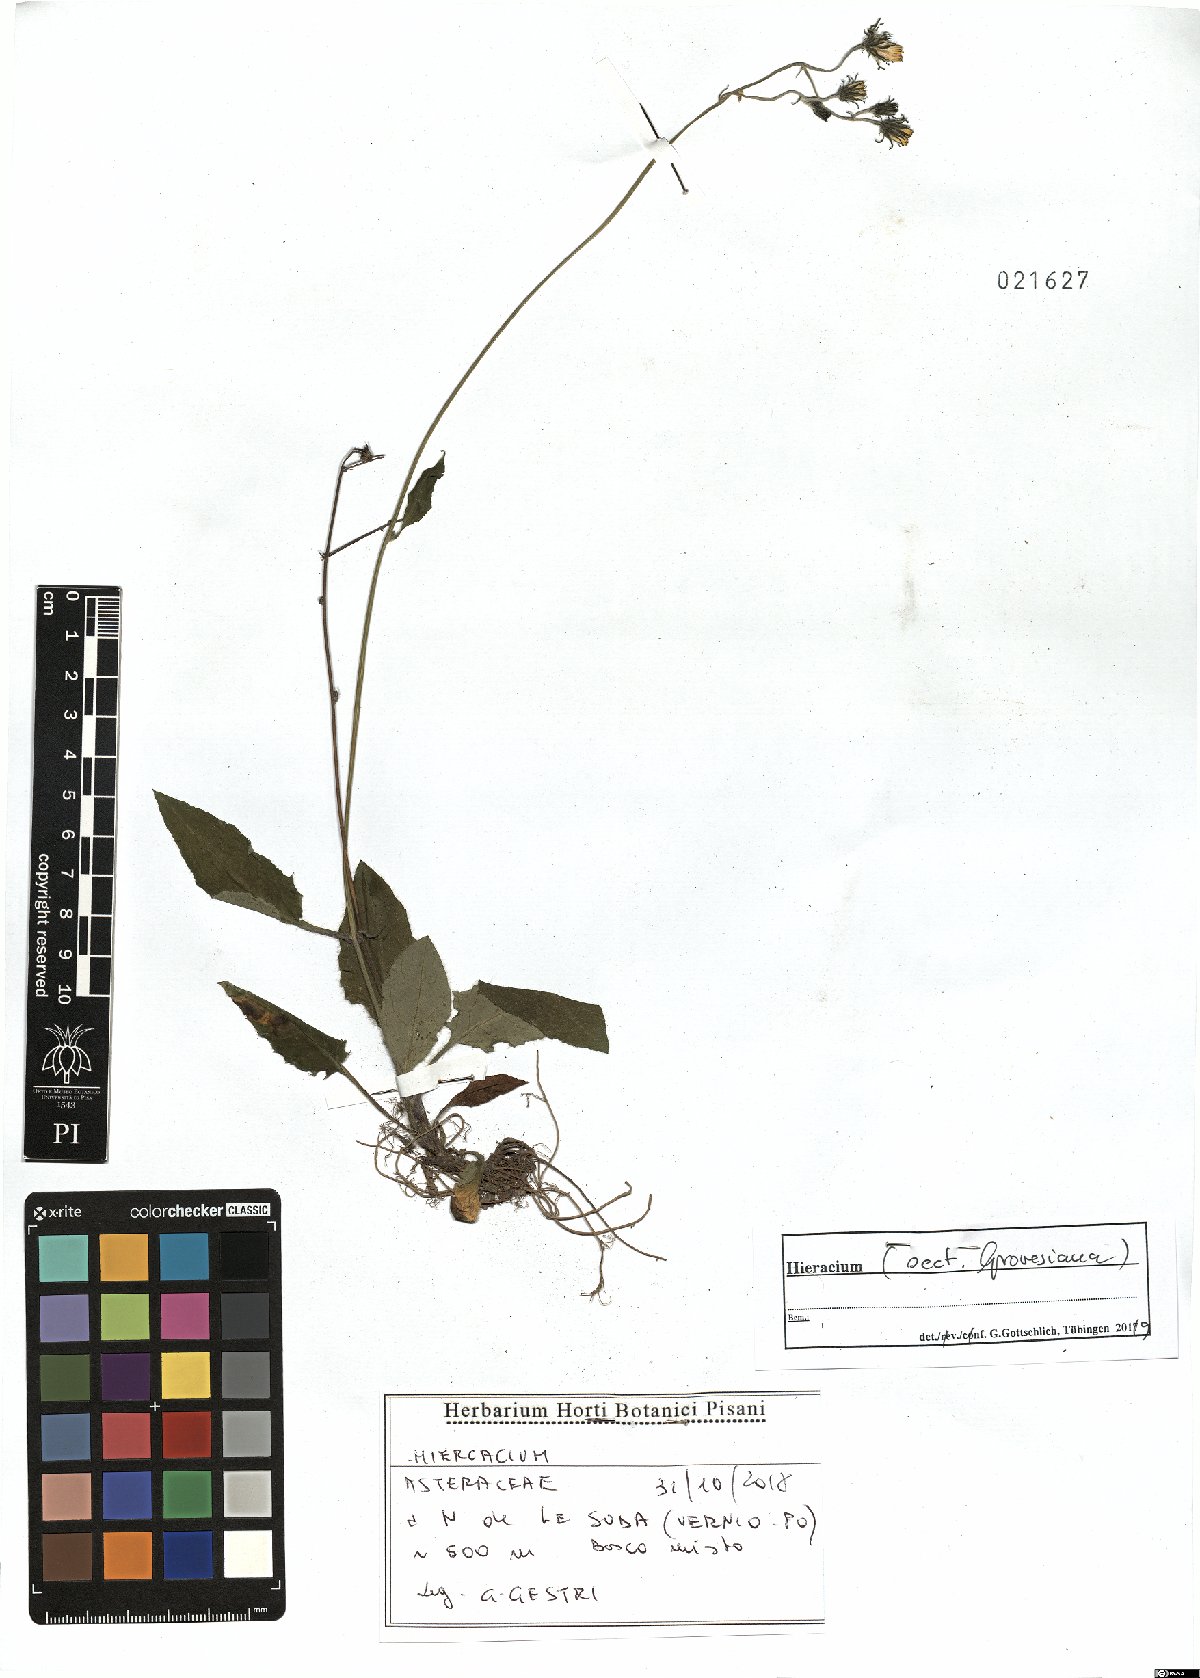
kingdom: Plantae
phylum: Tracheophyta
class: Magnoliopsida
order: Asterales
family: Asteraceae
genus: Hieracium
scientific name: Hieracium grovesianum
